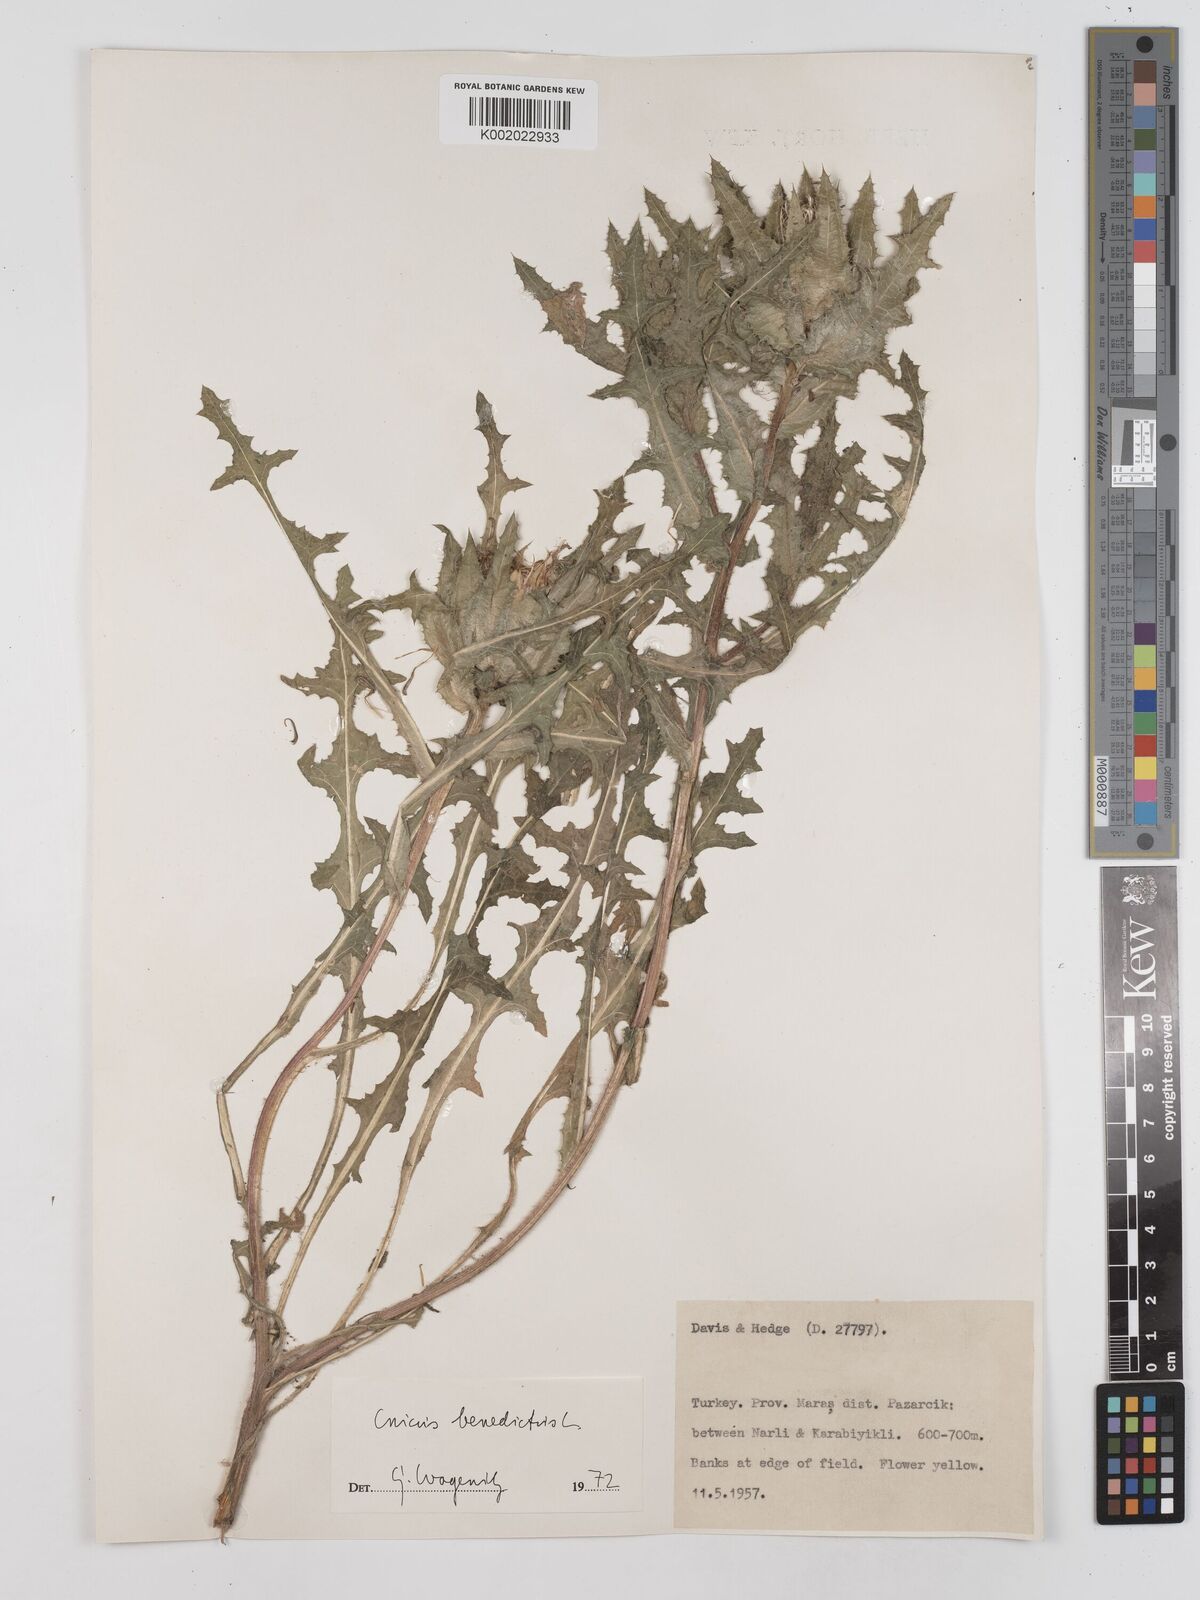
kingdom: Plantae
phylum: Tracheophyta
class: Magnoliopsida
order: Asterales
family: Asteraceae
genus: Centaurea
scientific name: Centaurea benedicta
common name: Blessed thistle
